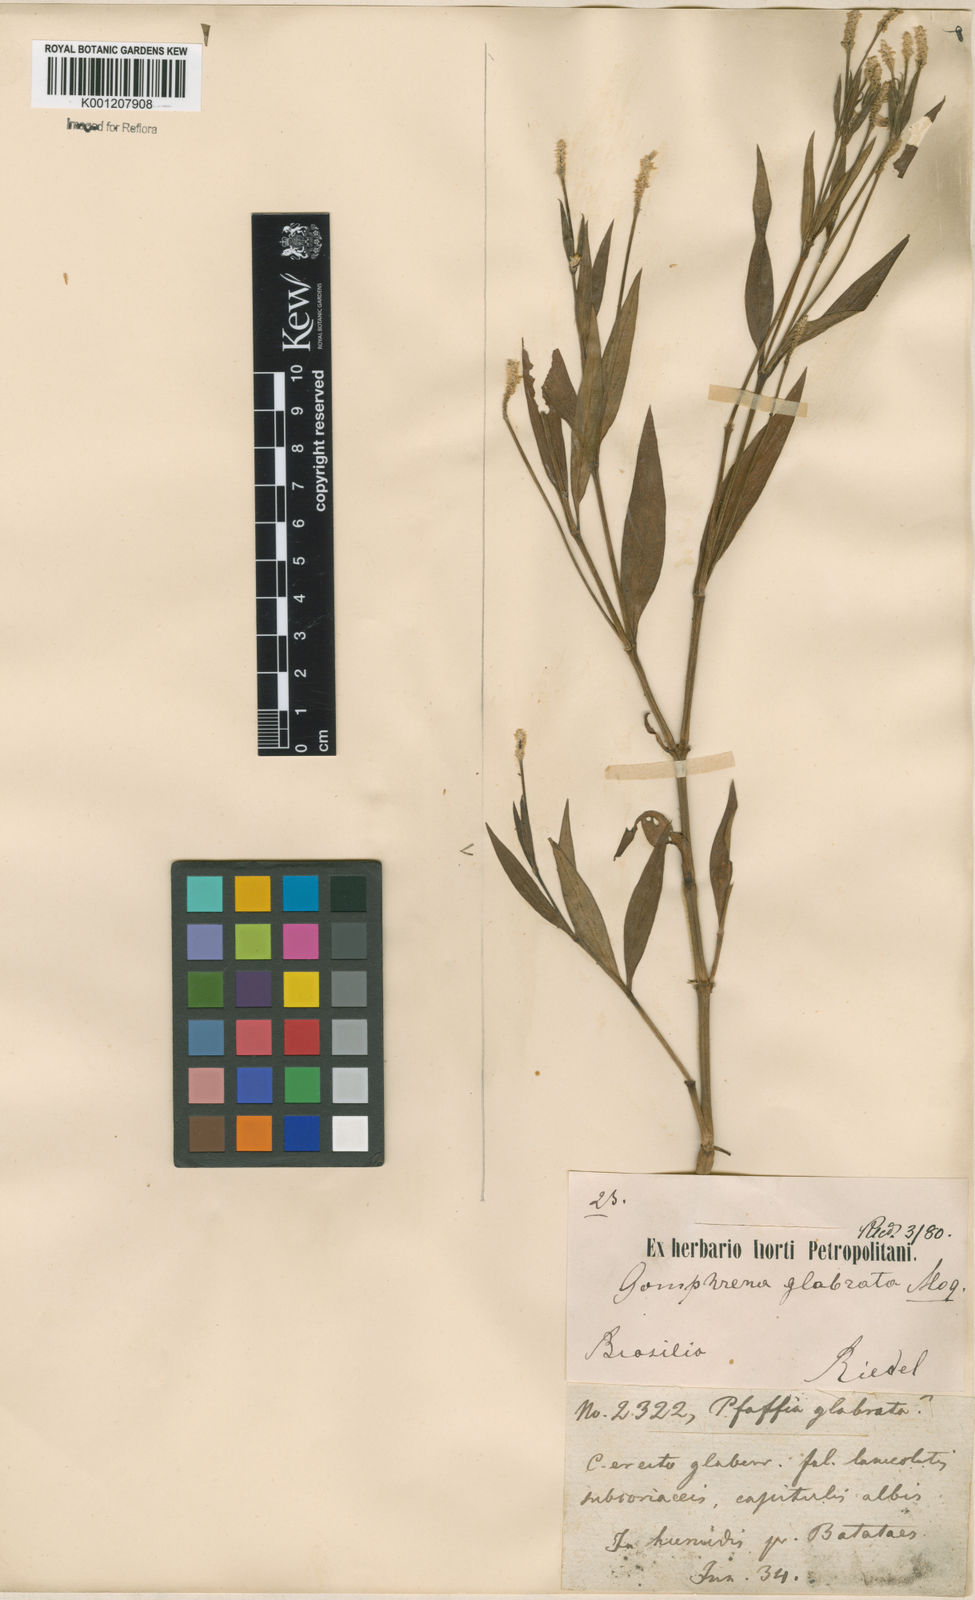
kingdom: Plantae
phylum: Tracheophyta
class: Magnoliopsida
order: Caryophyllales
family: Amaranthaceae
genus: Pfaffia
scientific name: Pfaffia glabrata
